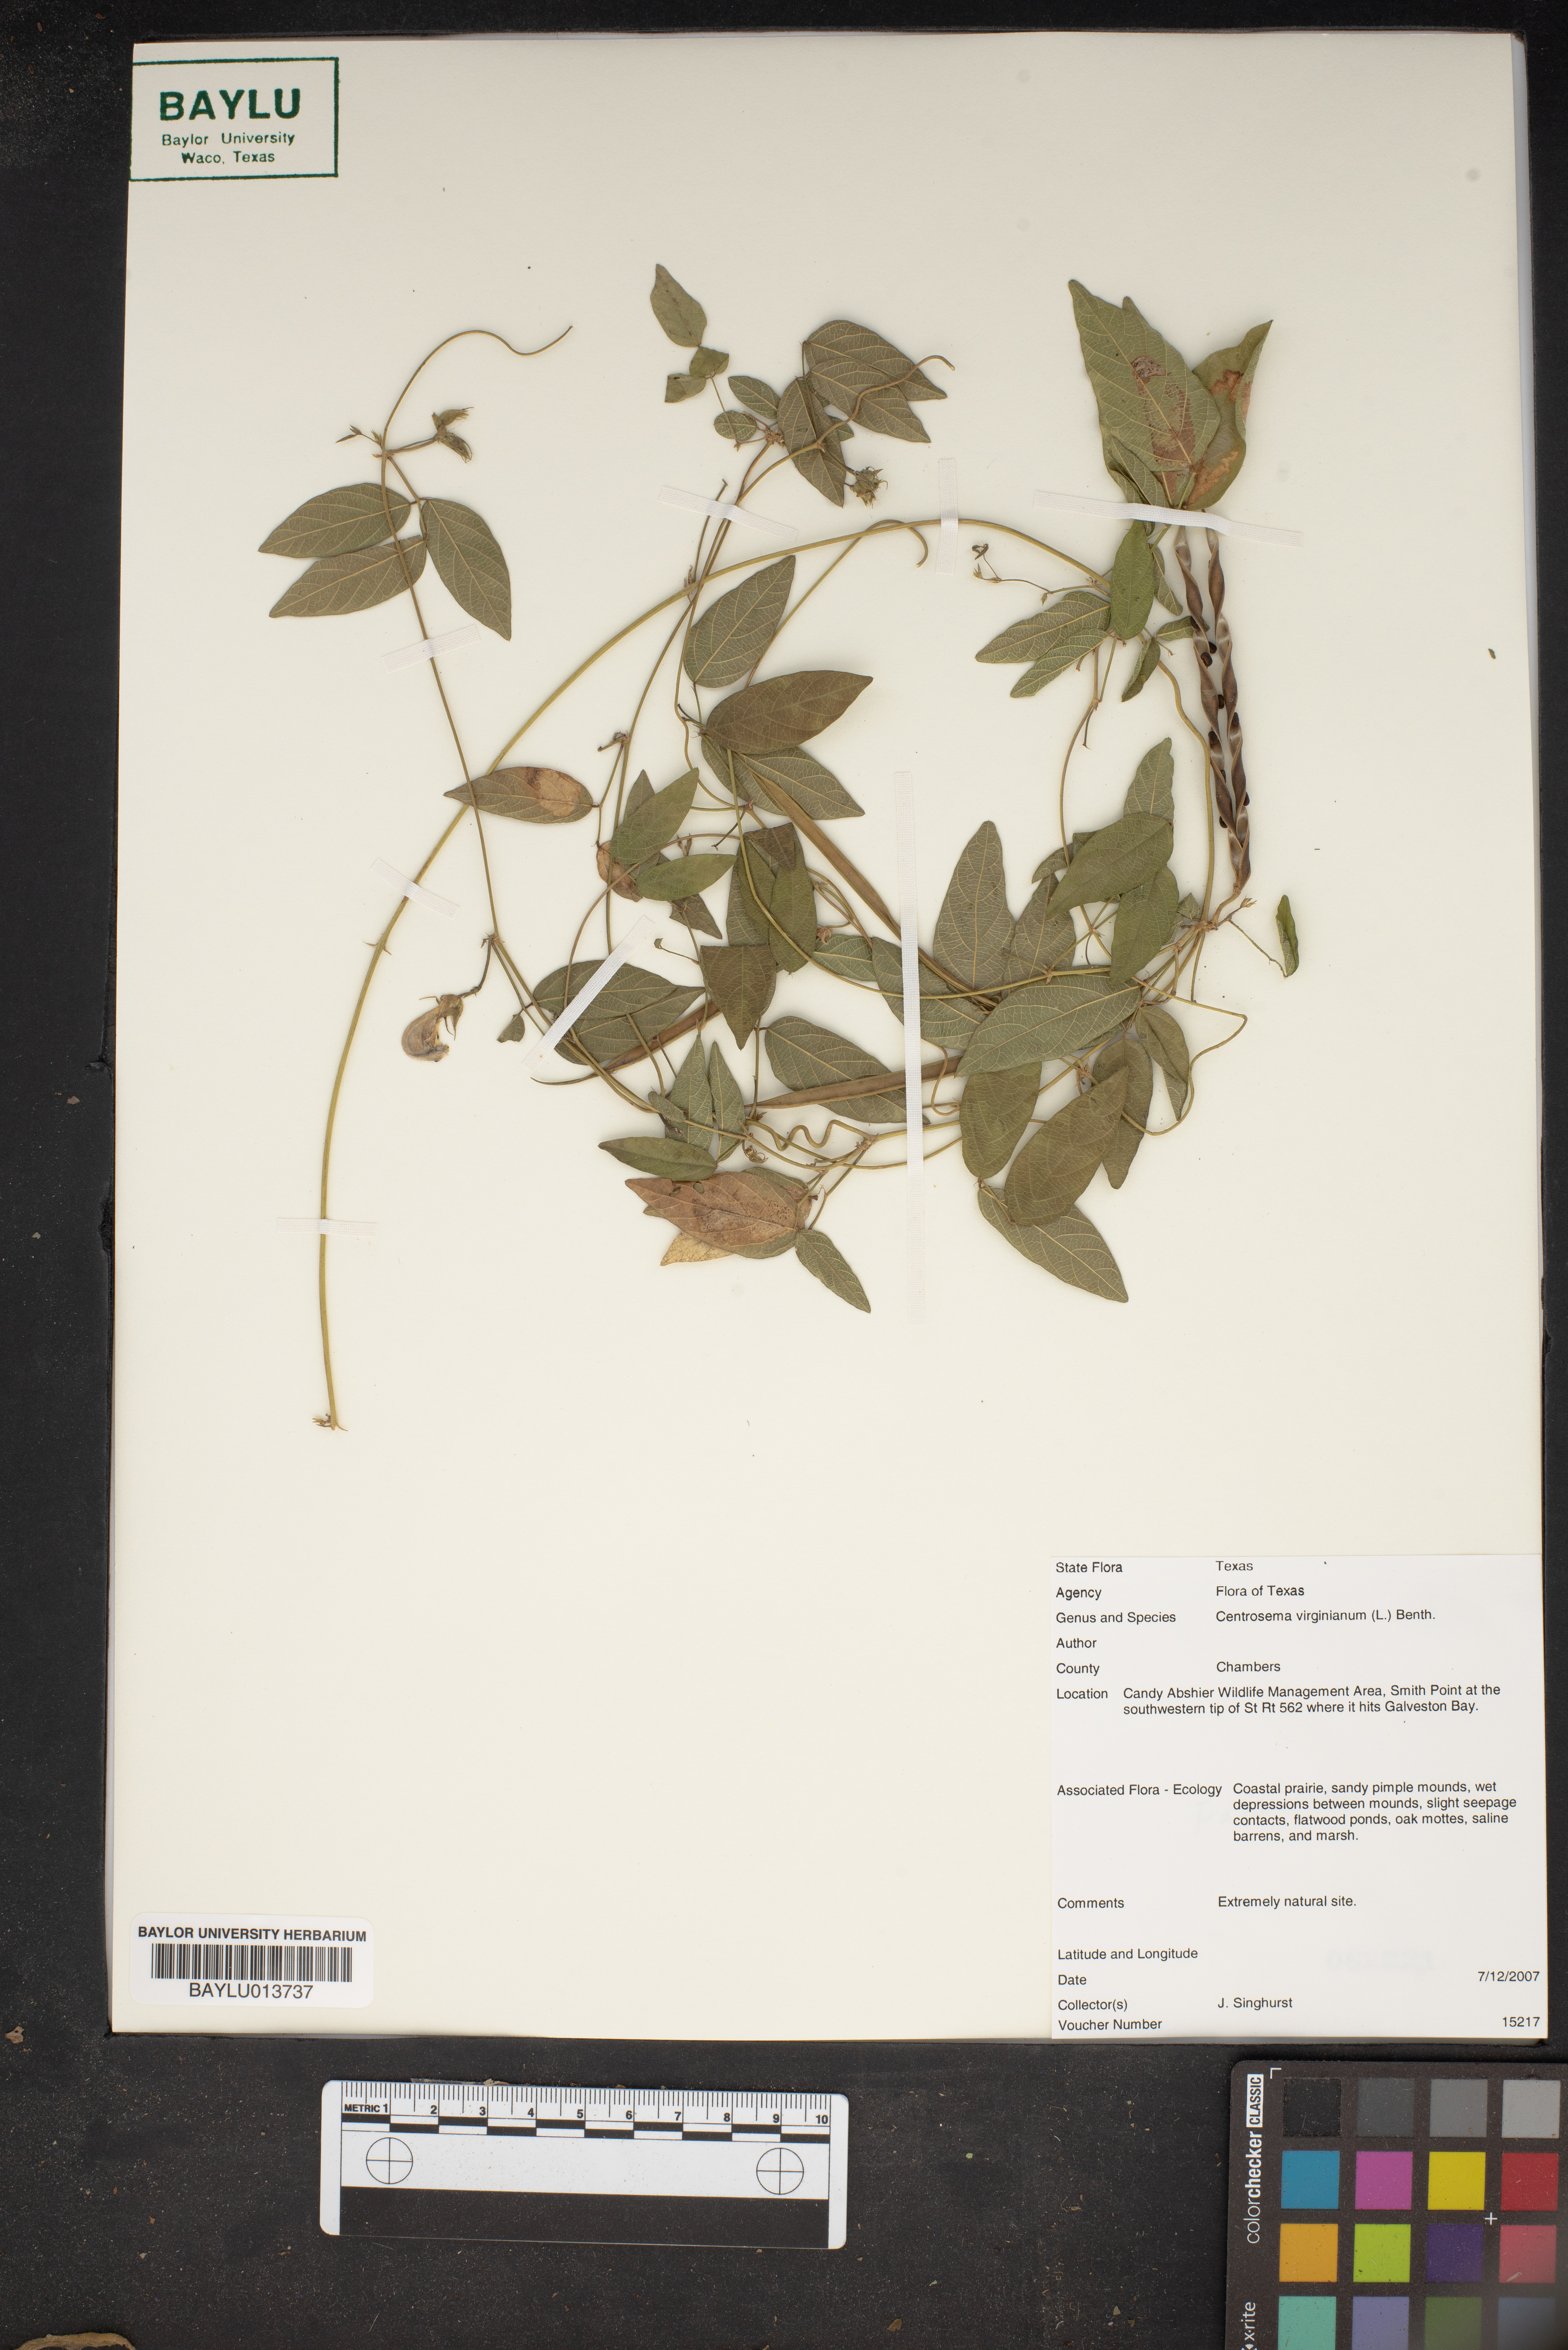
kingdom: Plantae
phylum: Tracheophyta
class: Magnoliopsida
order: Fabales
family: Fabaceae
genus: Centrosema
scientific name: Centrosema virginianum
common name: Butterfly-pea
